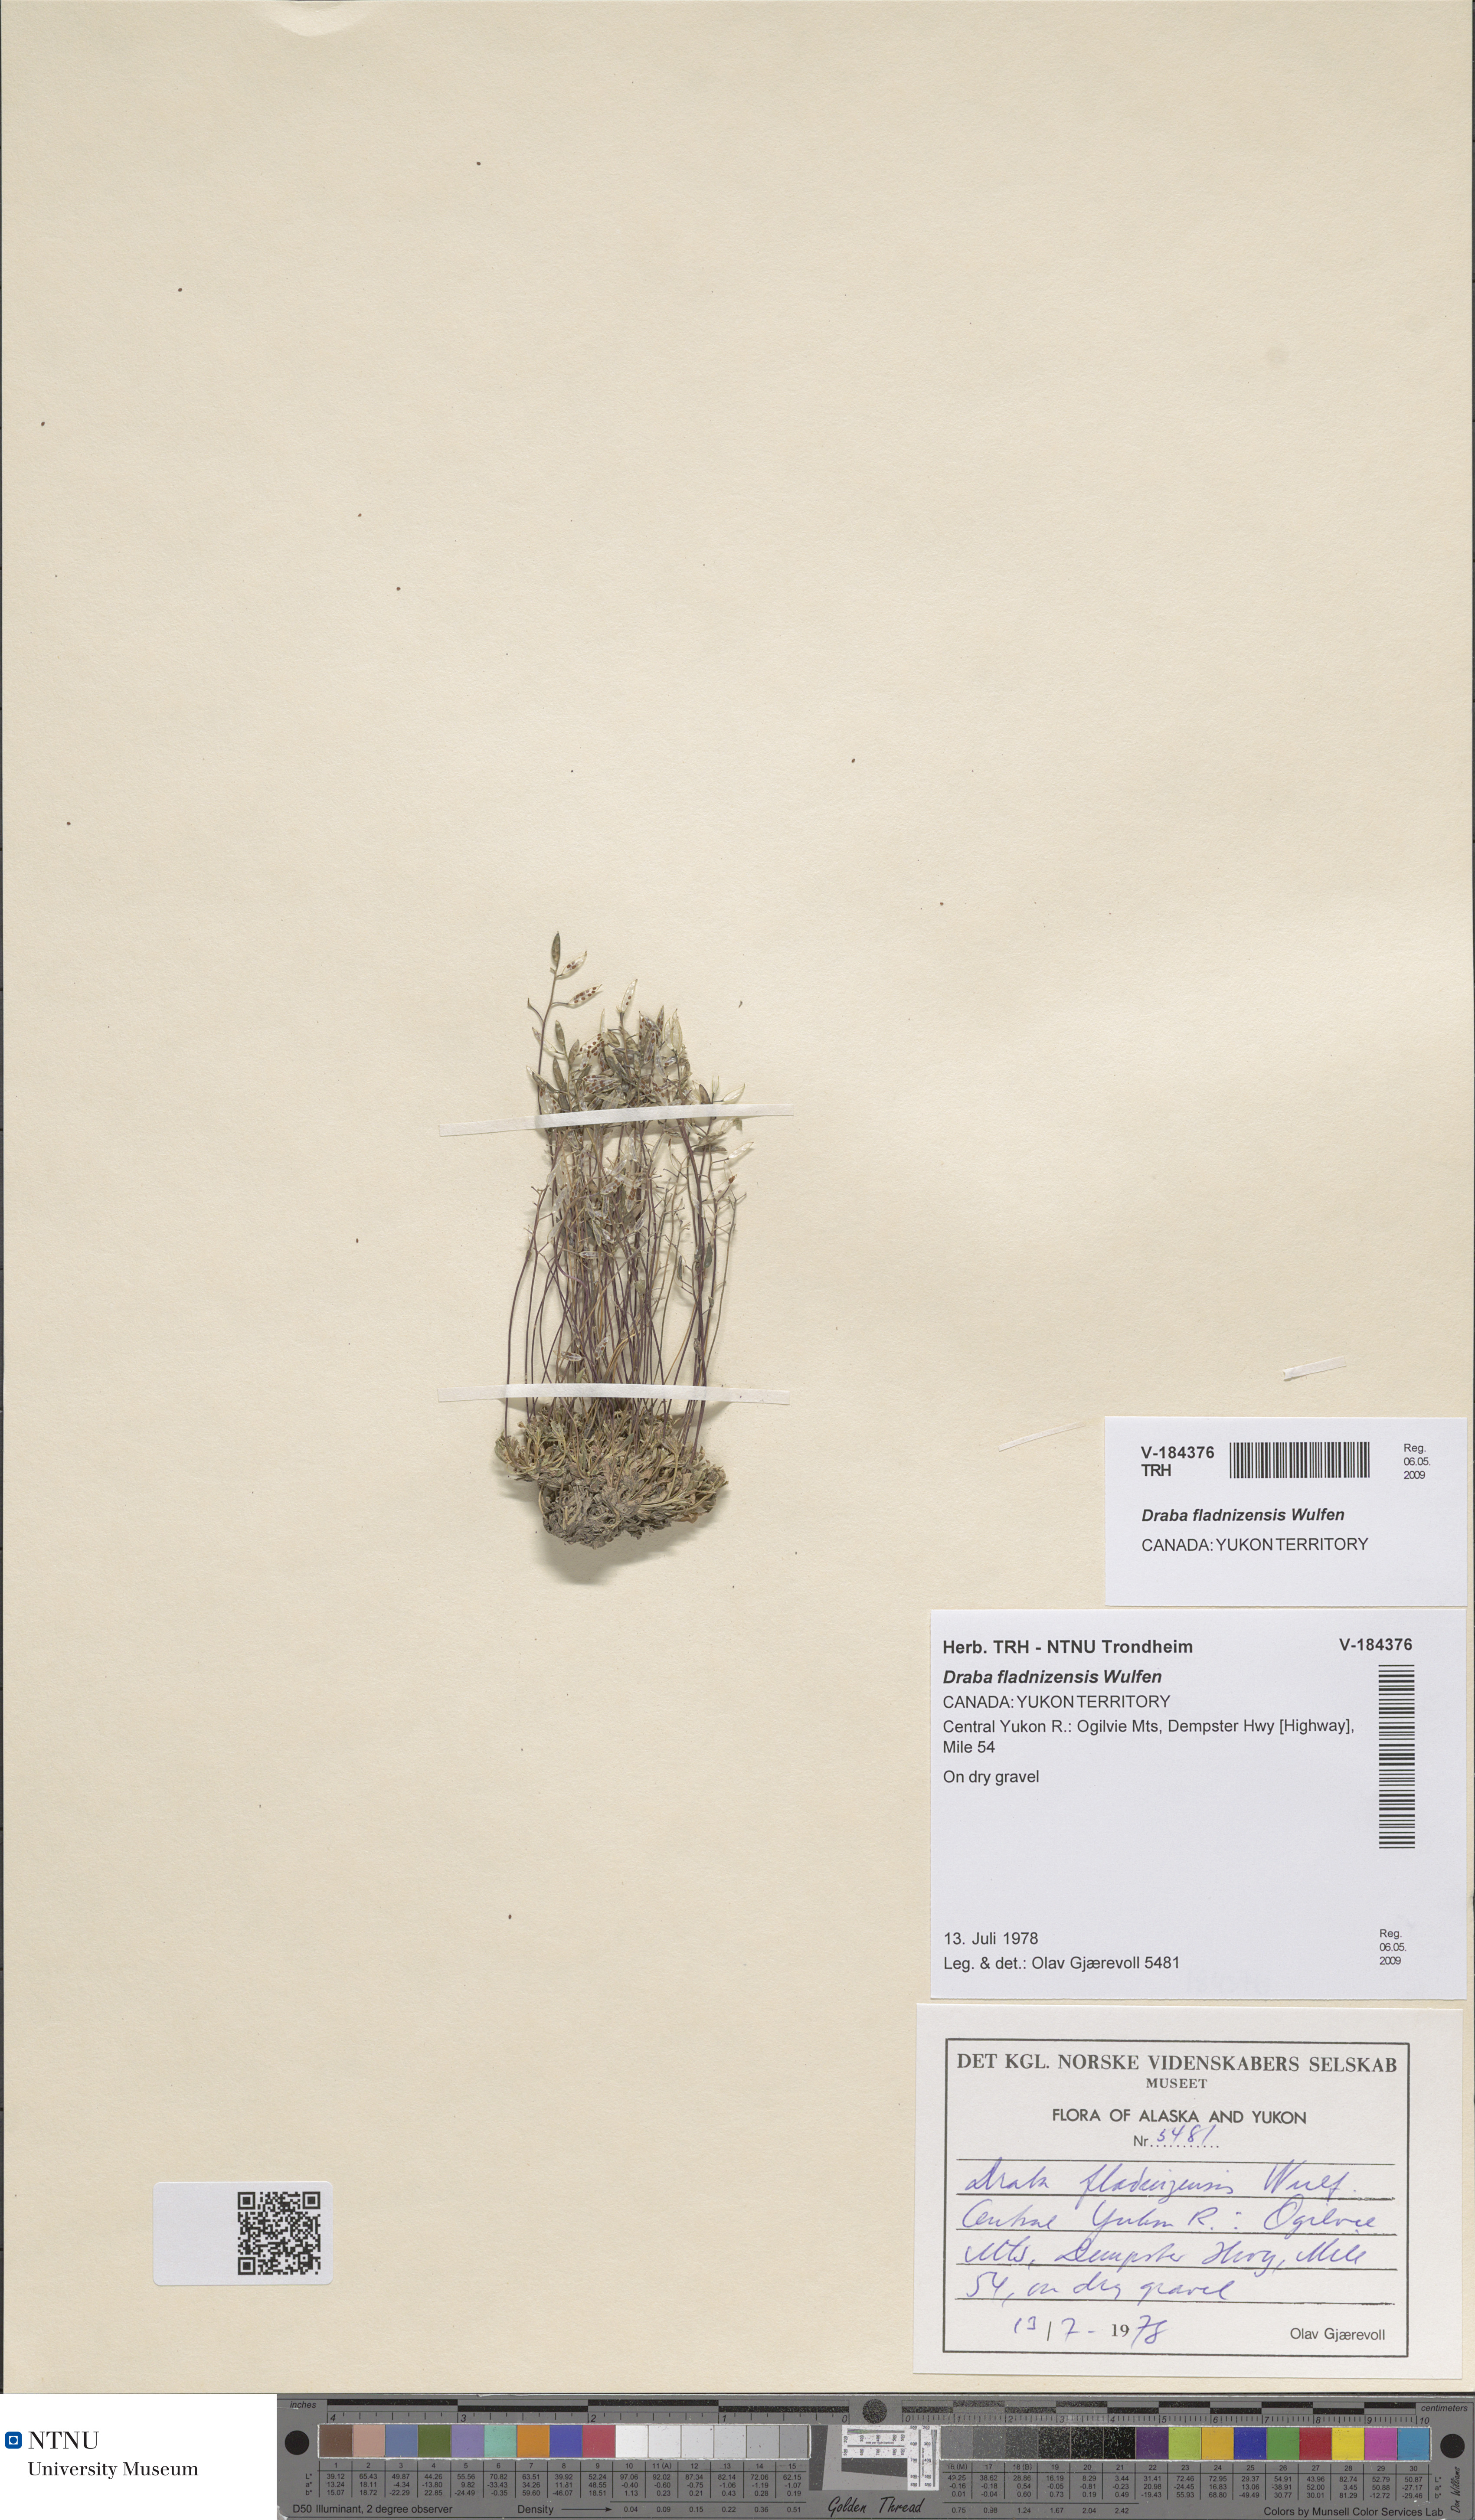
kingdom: Plantae
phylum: Tracheophyta
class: Magnoliopsida
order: Brassicales
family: Brassicaceae
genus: Draba
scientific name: Draba fladnizensis
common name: Austrian draba
